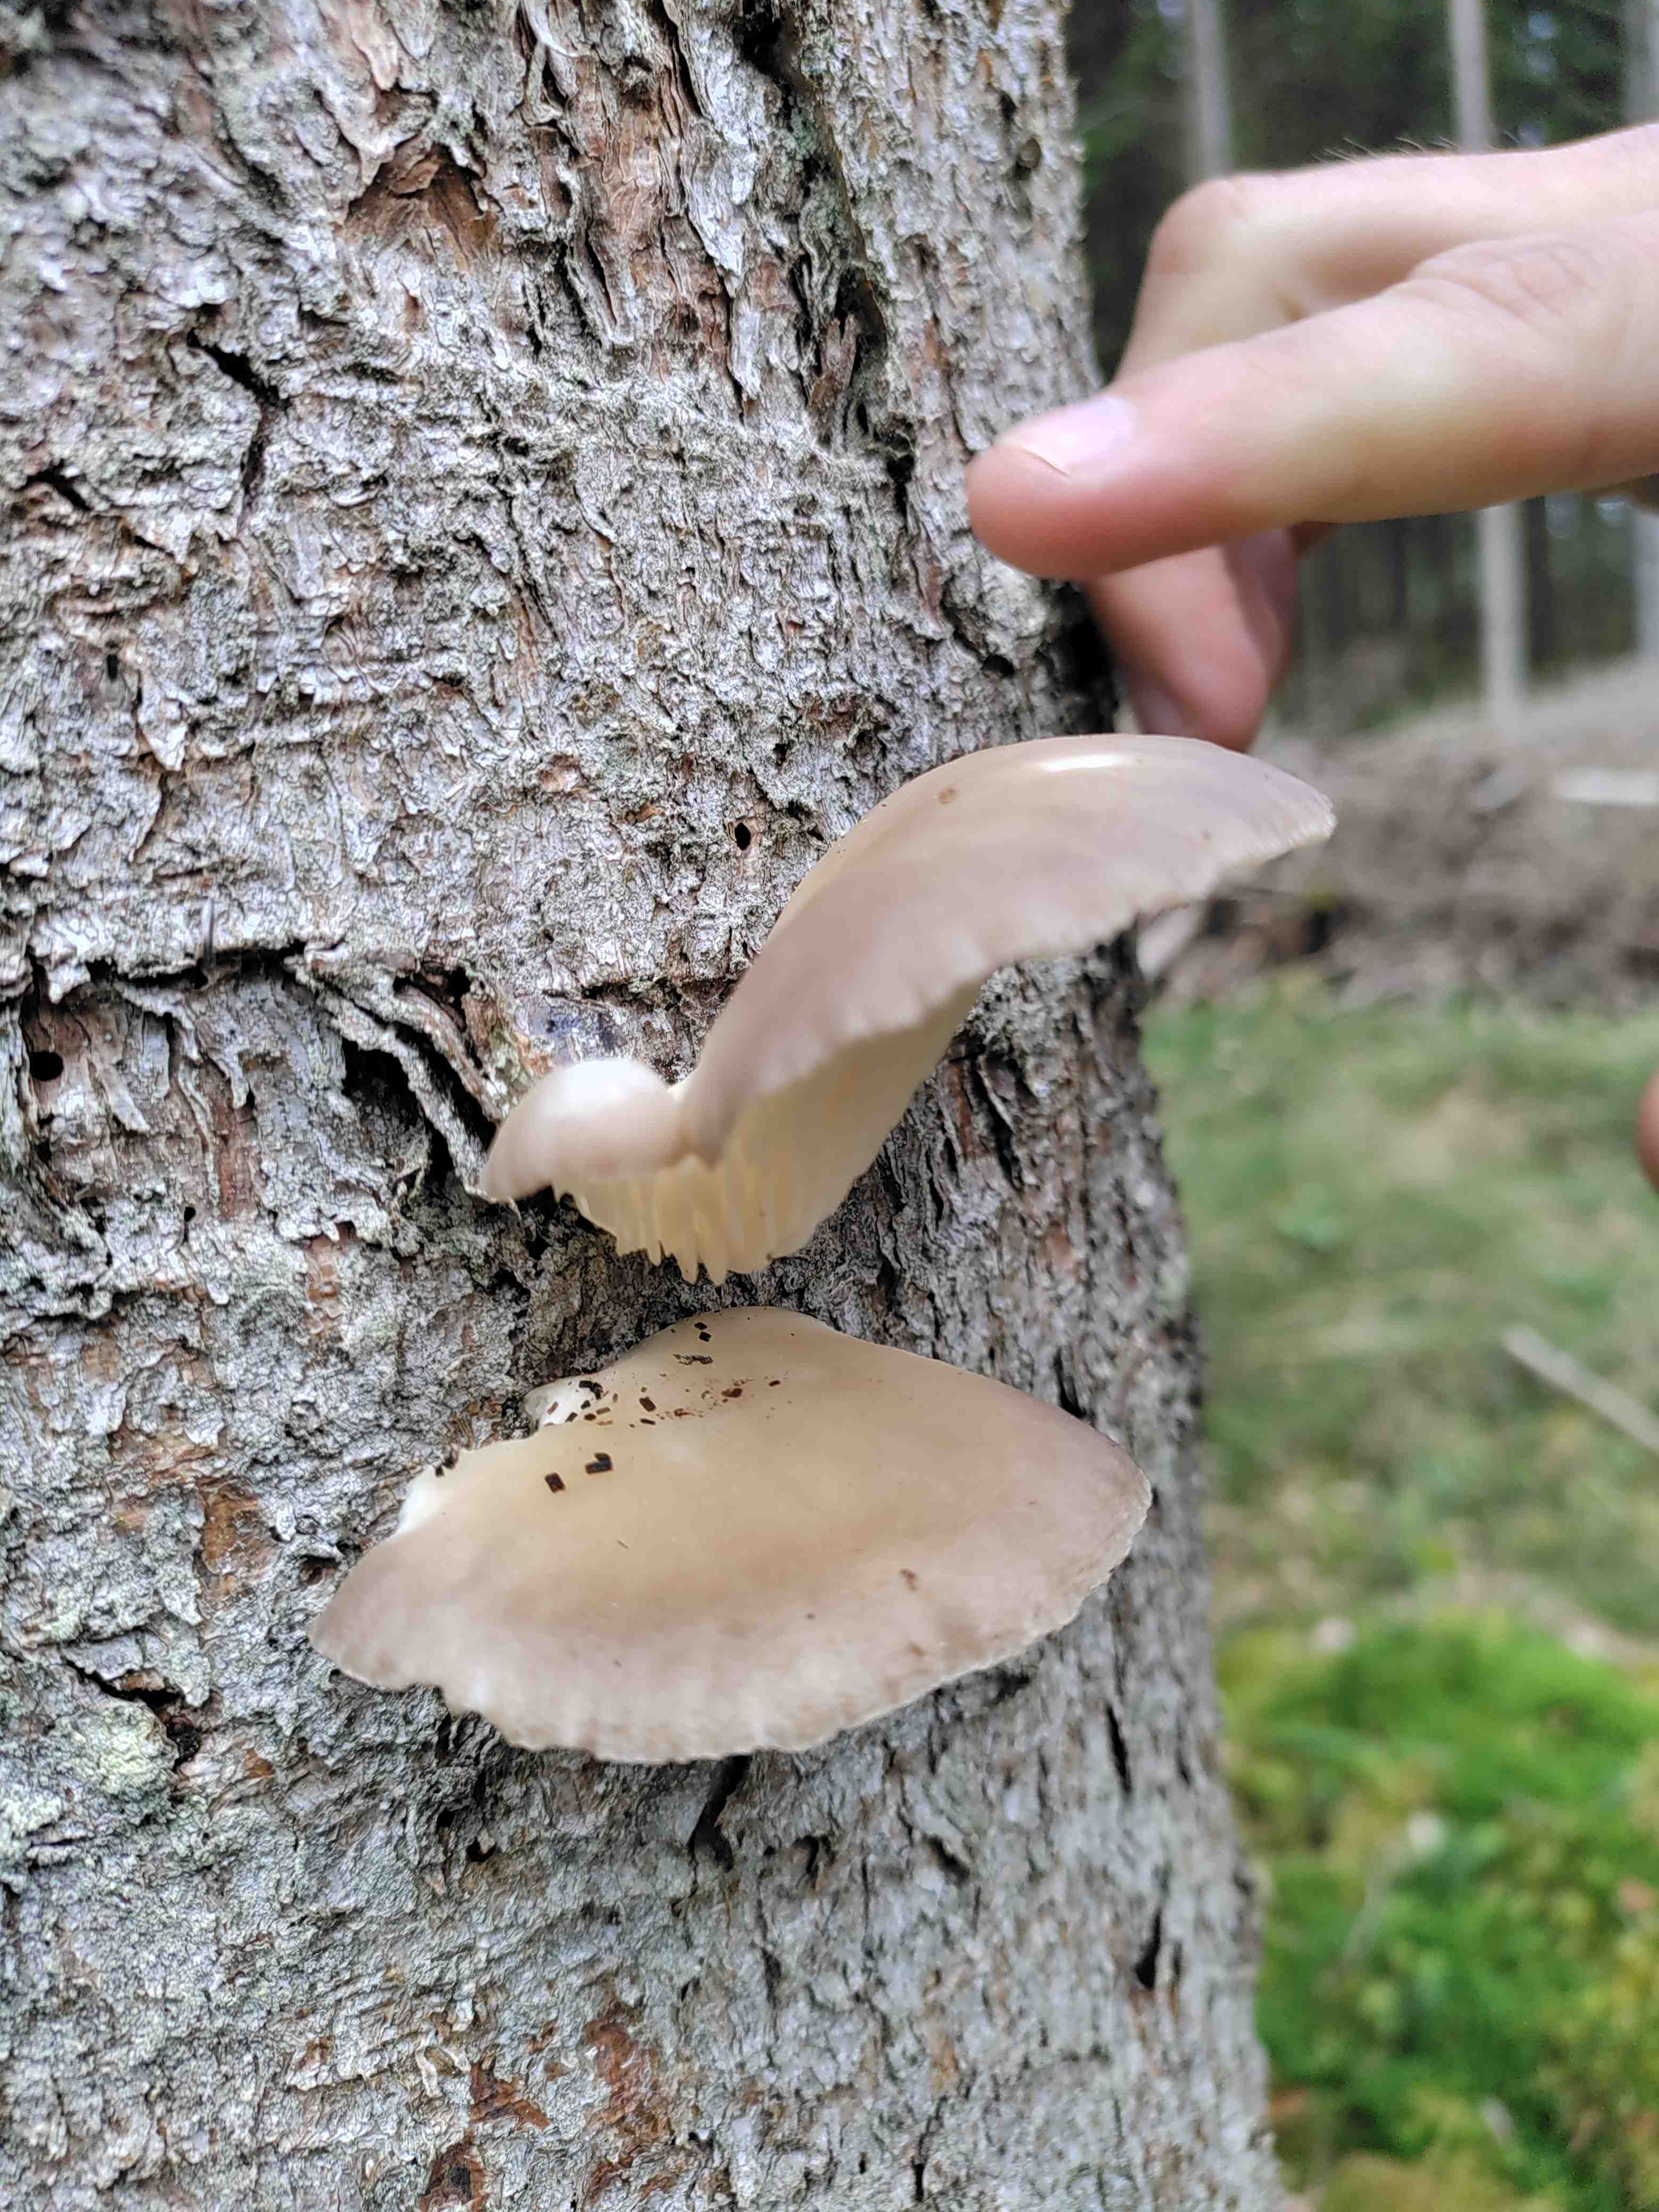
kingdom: Fungi
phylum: Basidiomycota
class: Agaricomycetes
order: Agaricales
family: Pleurotaceae
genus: Pleurotus
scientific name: Pleurotus pulmonarius
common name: sommer-østershat
